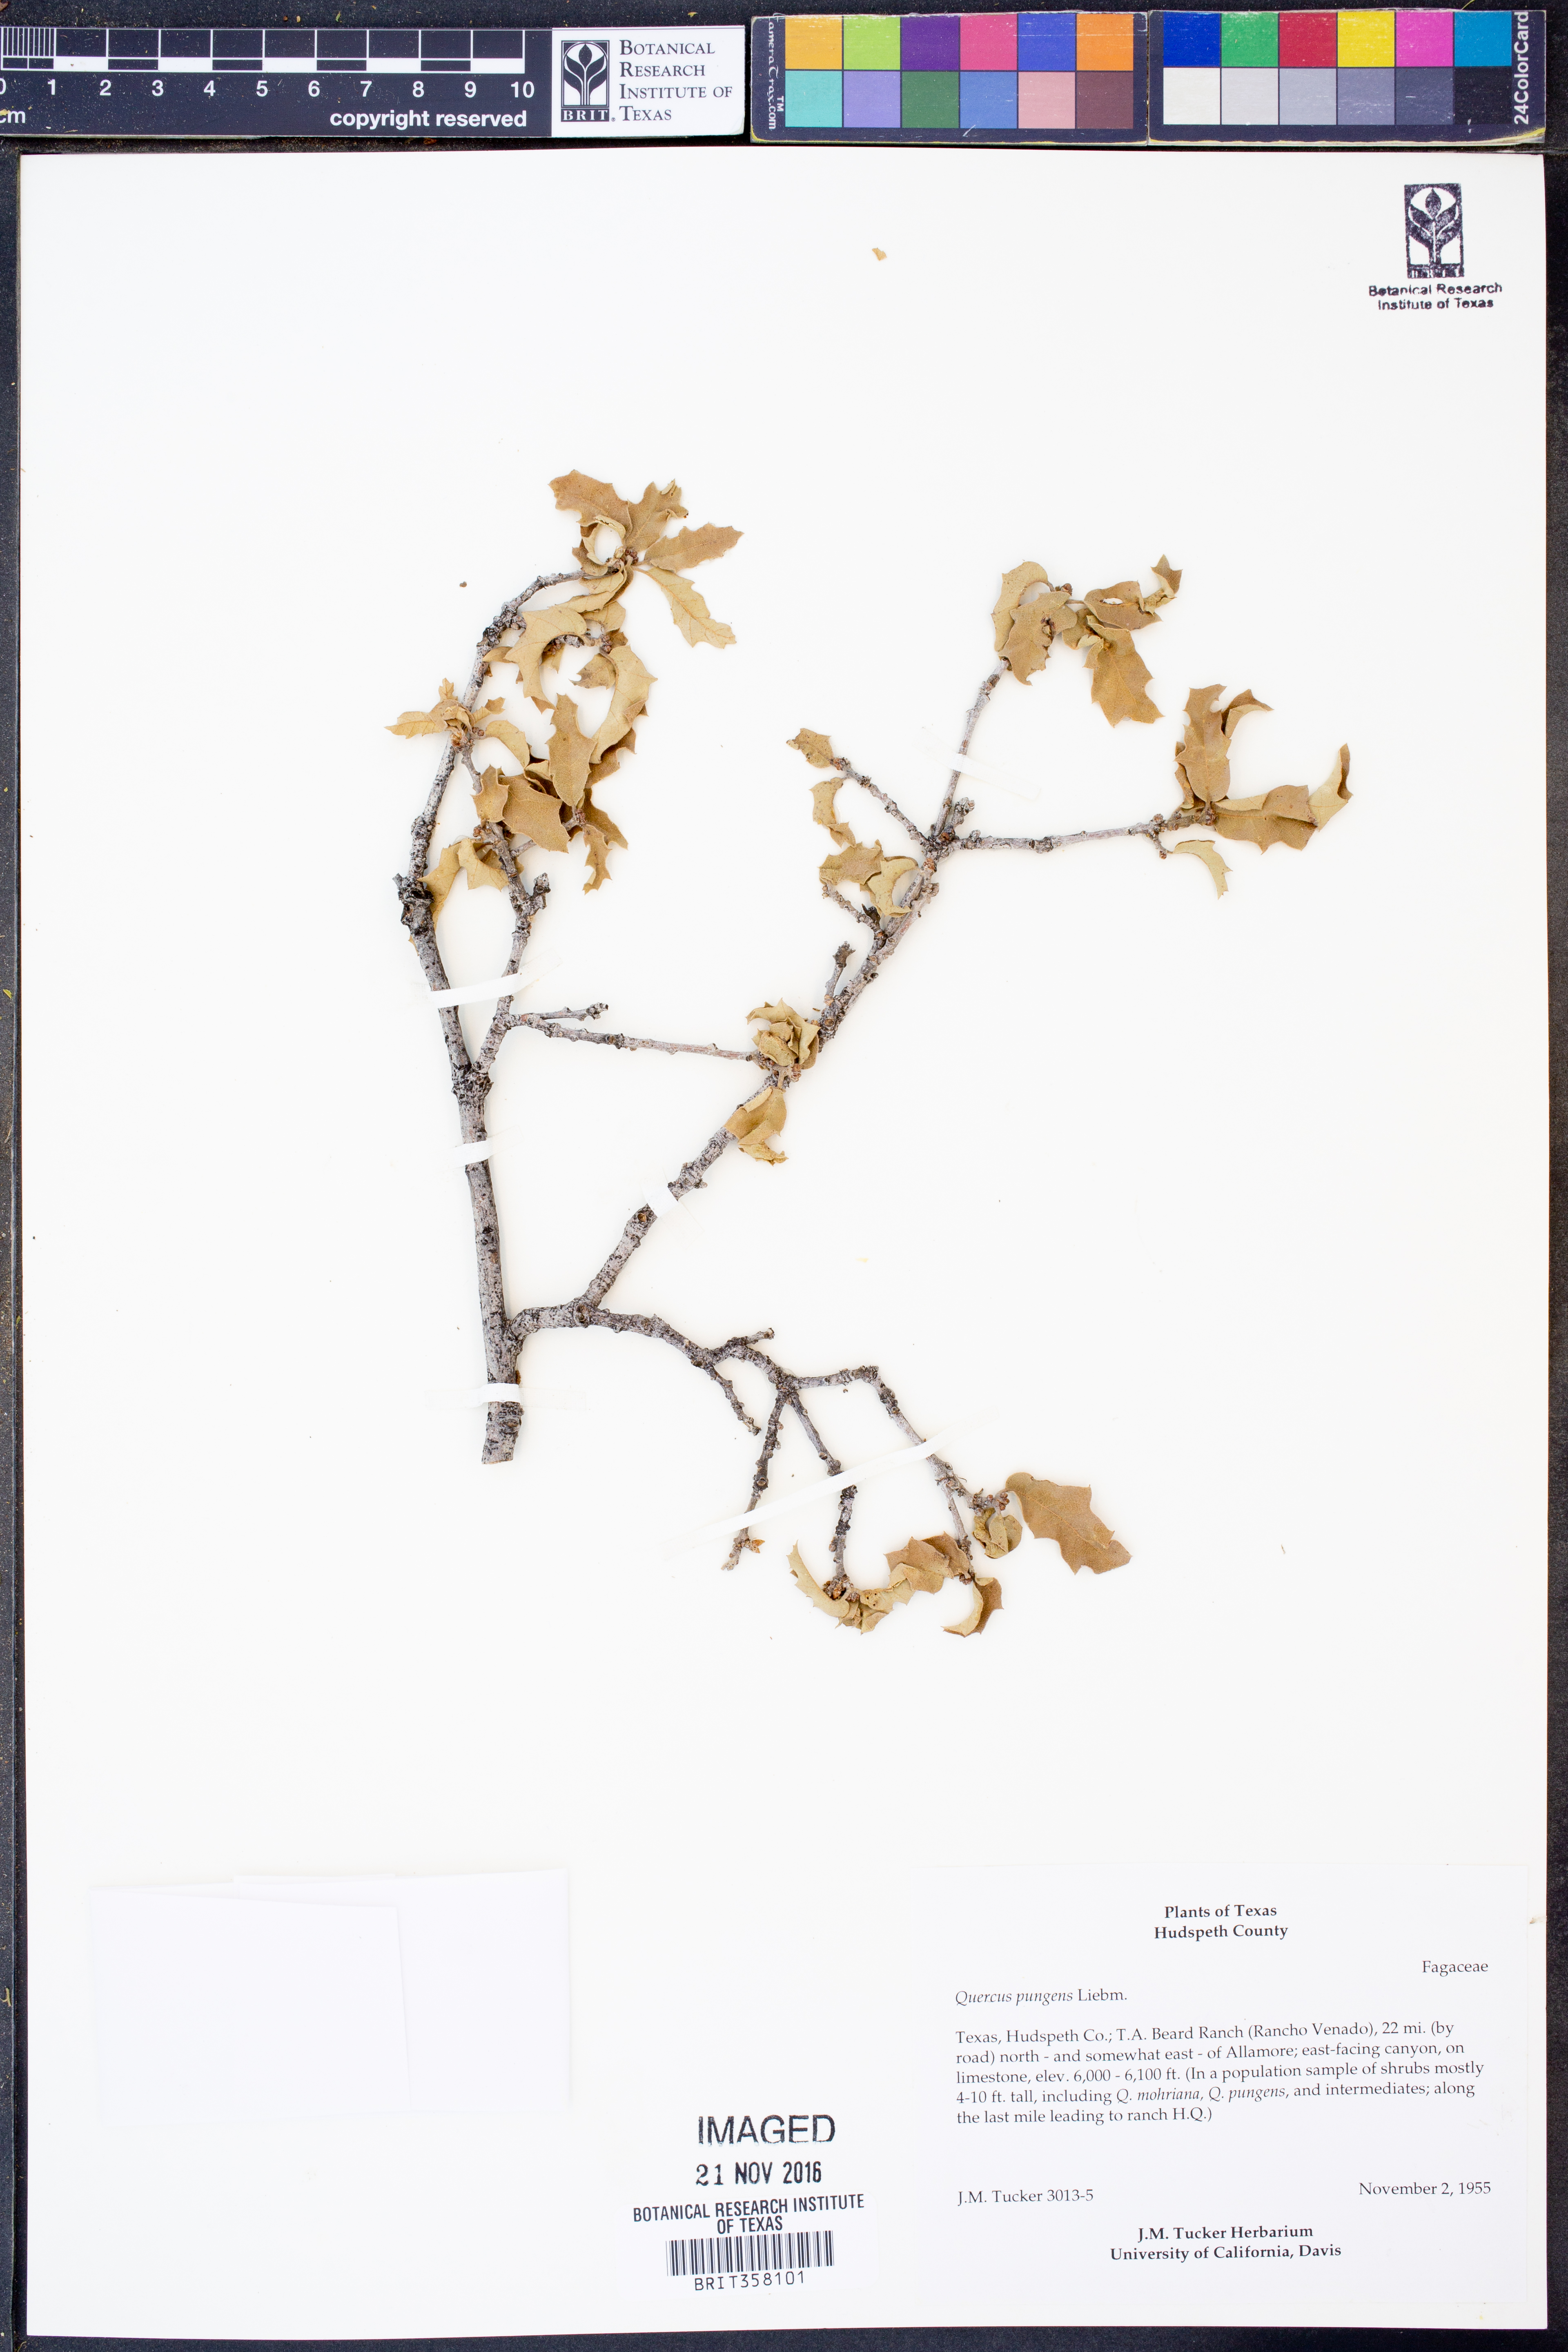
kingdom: Plantae
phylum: Tracheophyta
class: Magnoliopsida
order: Fagales
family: Fagaceae
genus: Quercus
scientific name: Quercus pungens
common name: Pungent oak
